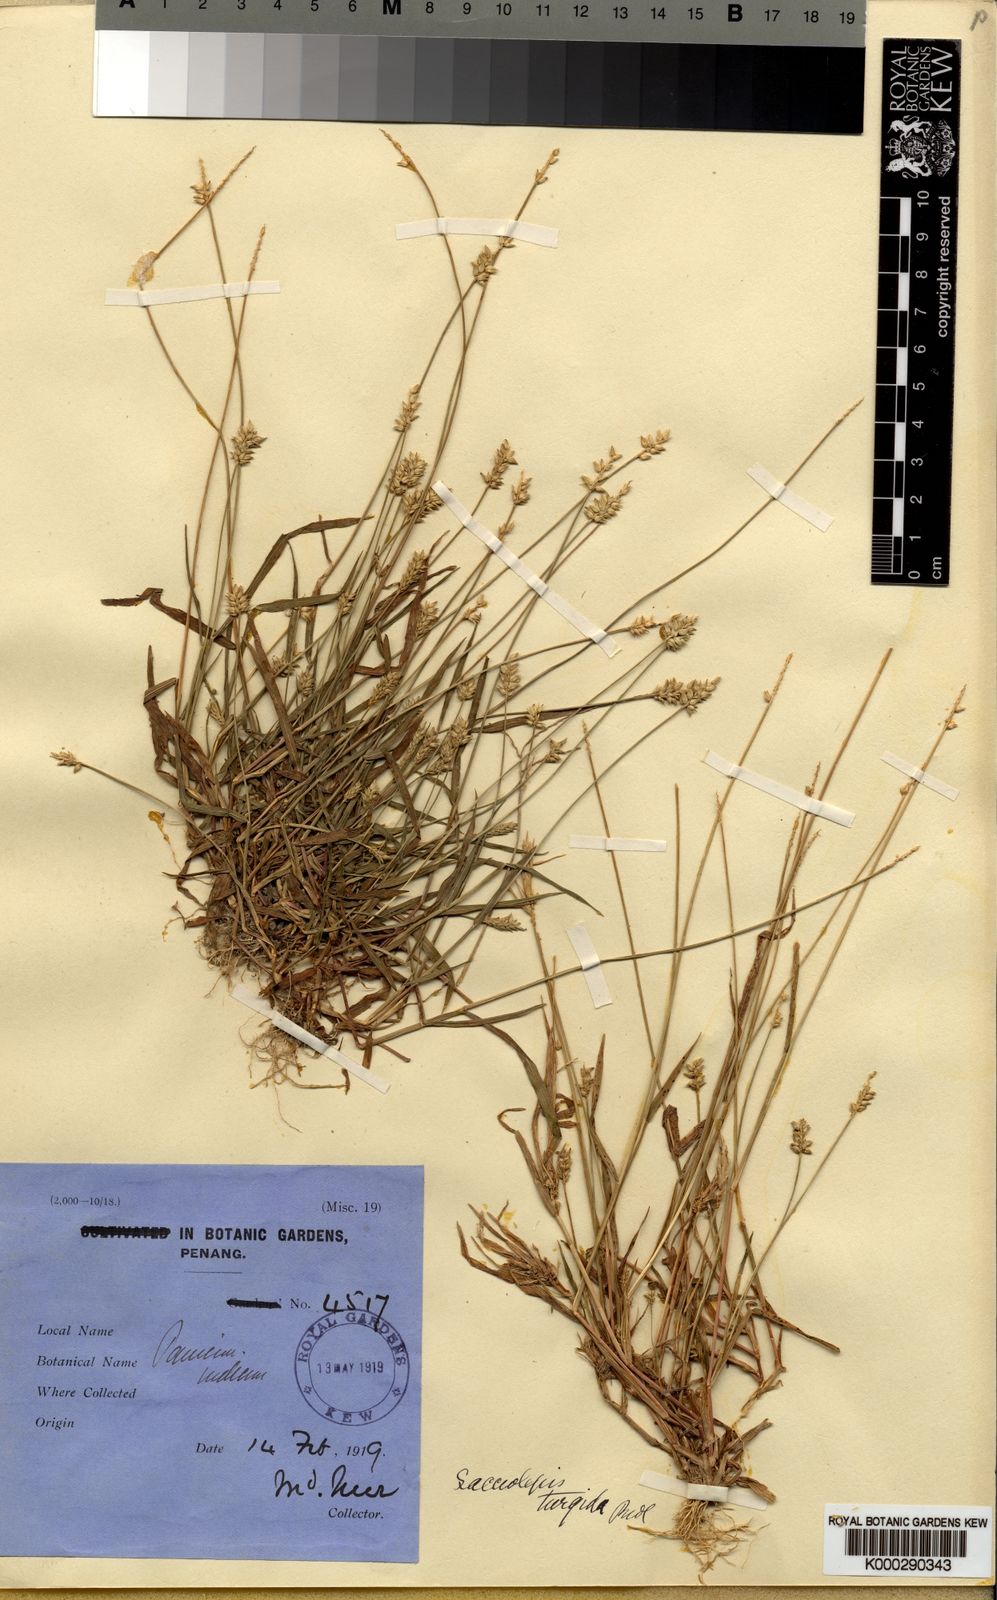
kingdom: Plantae
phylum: Tracheophyta
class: Liliopsida
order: Poales
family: Poaceae
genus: Sacciolepis
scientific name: Sacciolepis indica
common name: Glenwoodgrass
